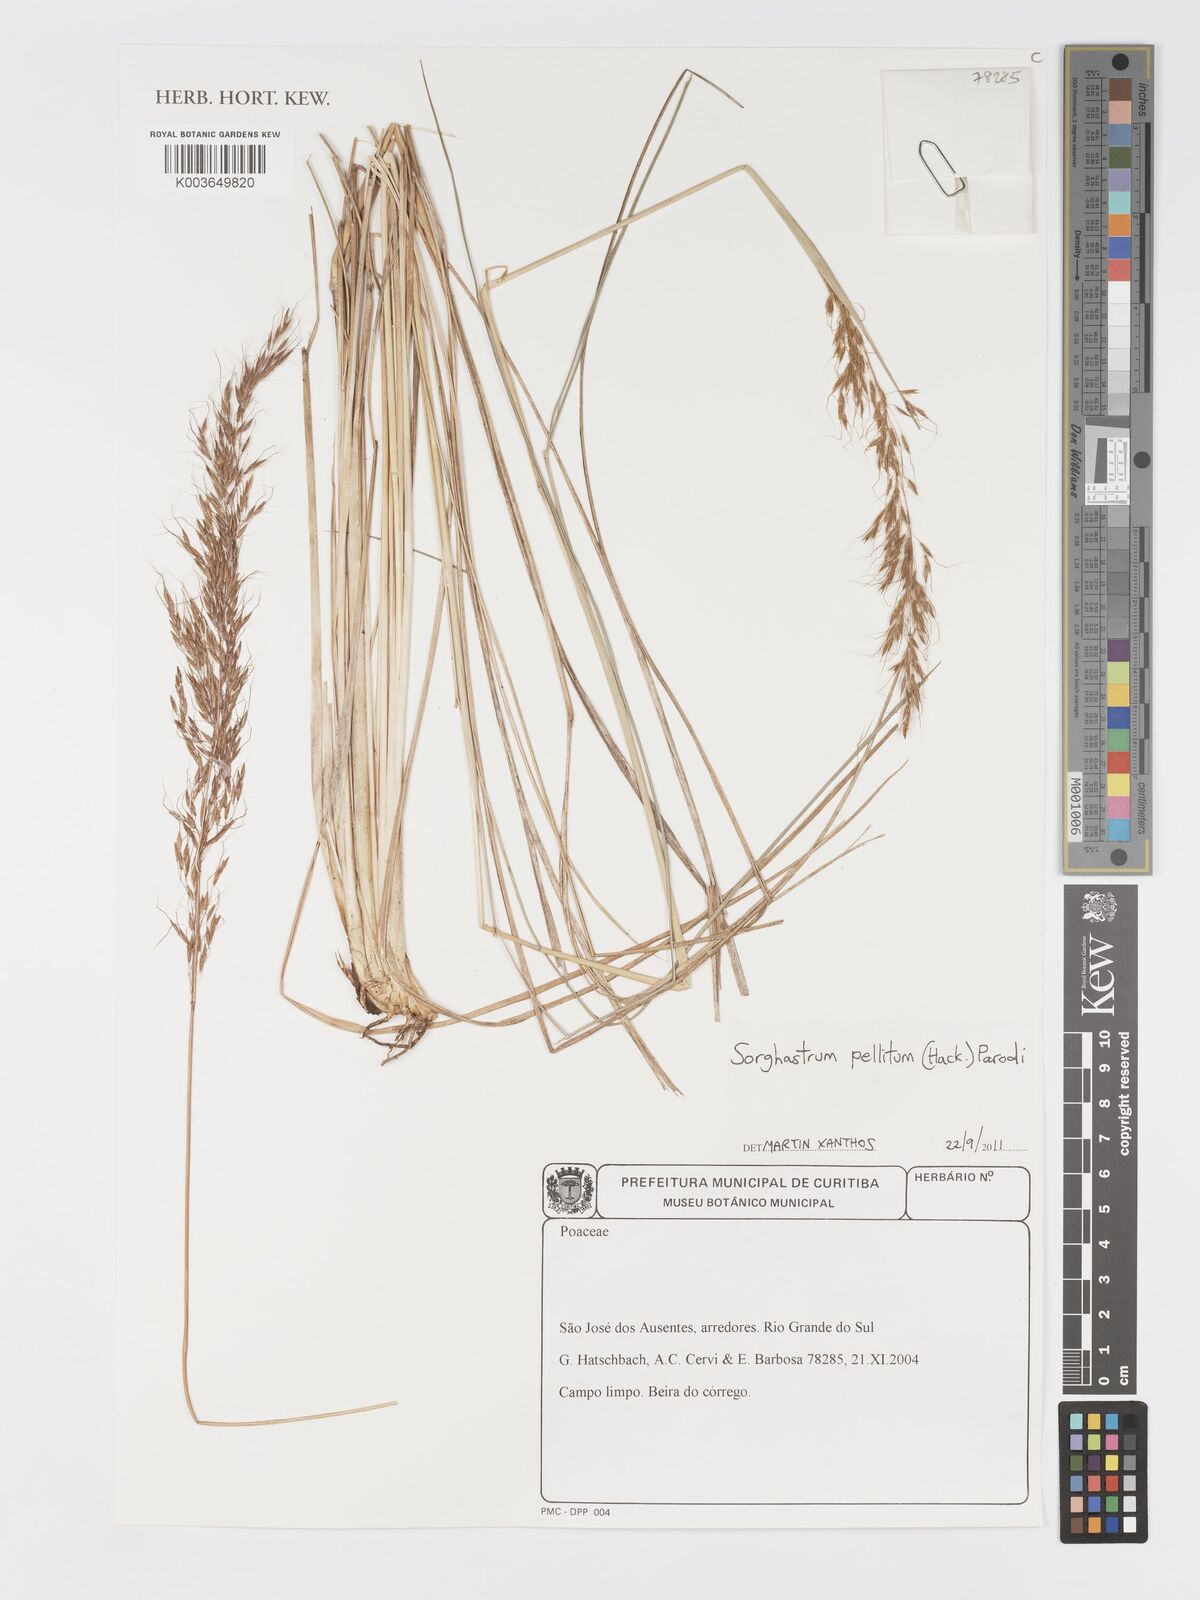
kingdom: Plantae
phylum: Tracheophyta
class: Liliopsida
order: Poales
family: Poaceae
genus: Sorghastrum
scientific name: Sorghastrum pellitum
